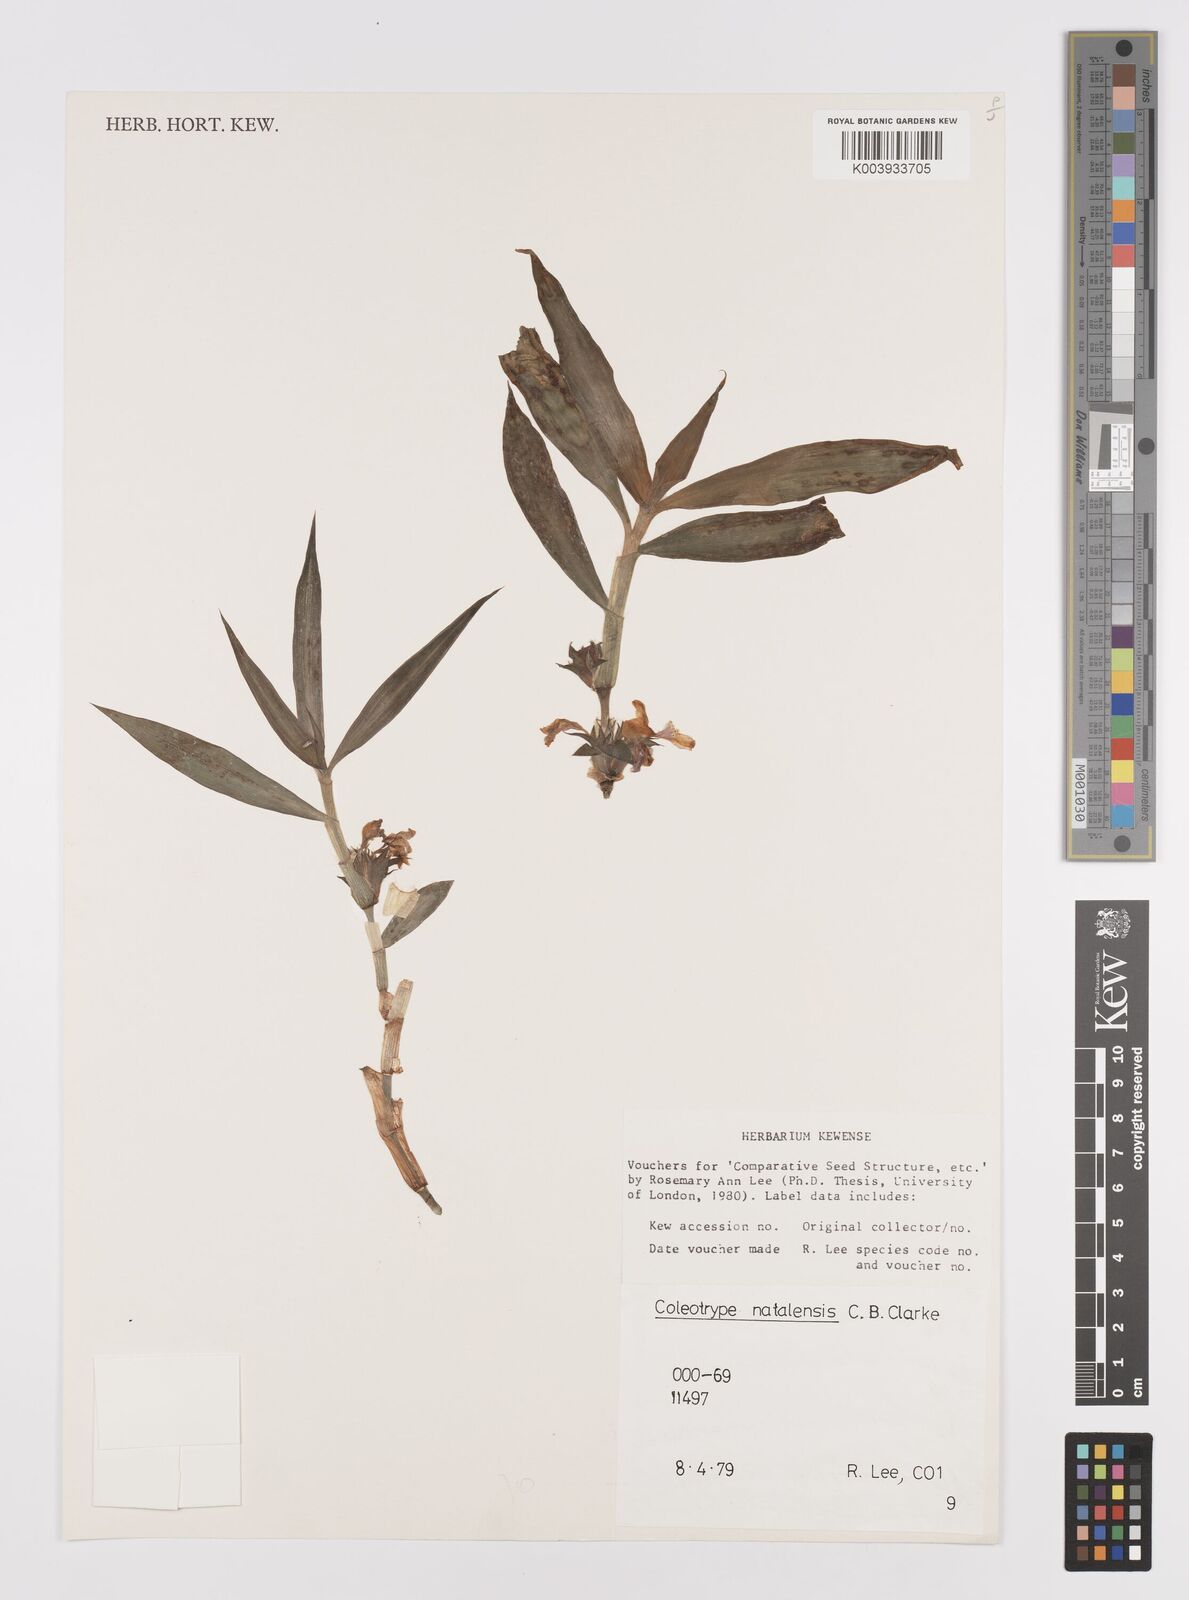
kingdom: Plantae
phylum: Tracheophyta
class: Liliopsida
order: Commelinales
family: Commelinaceae
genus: Coleotrype
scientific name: Coleotrype natalensis
